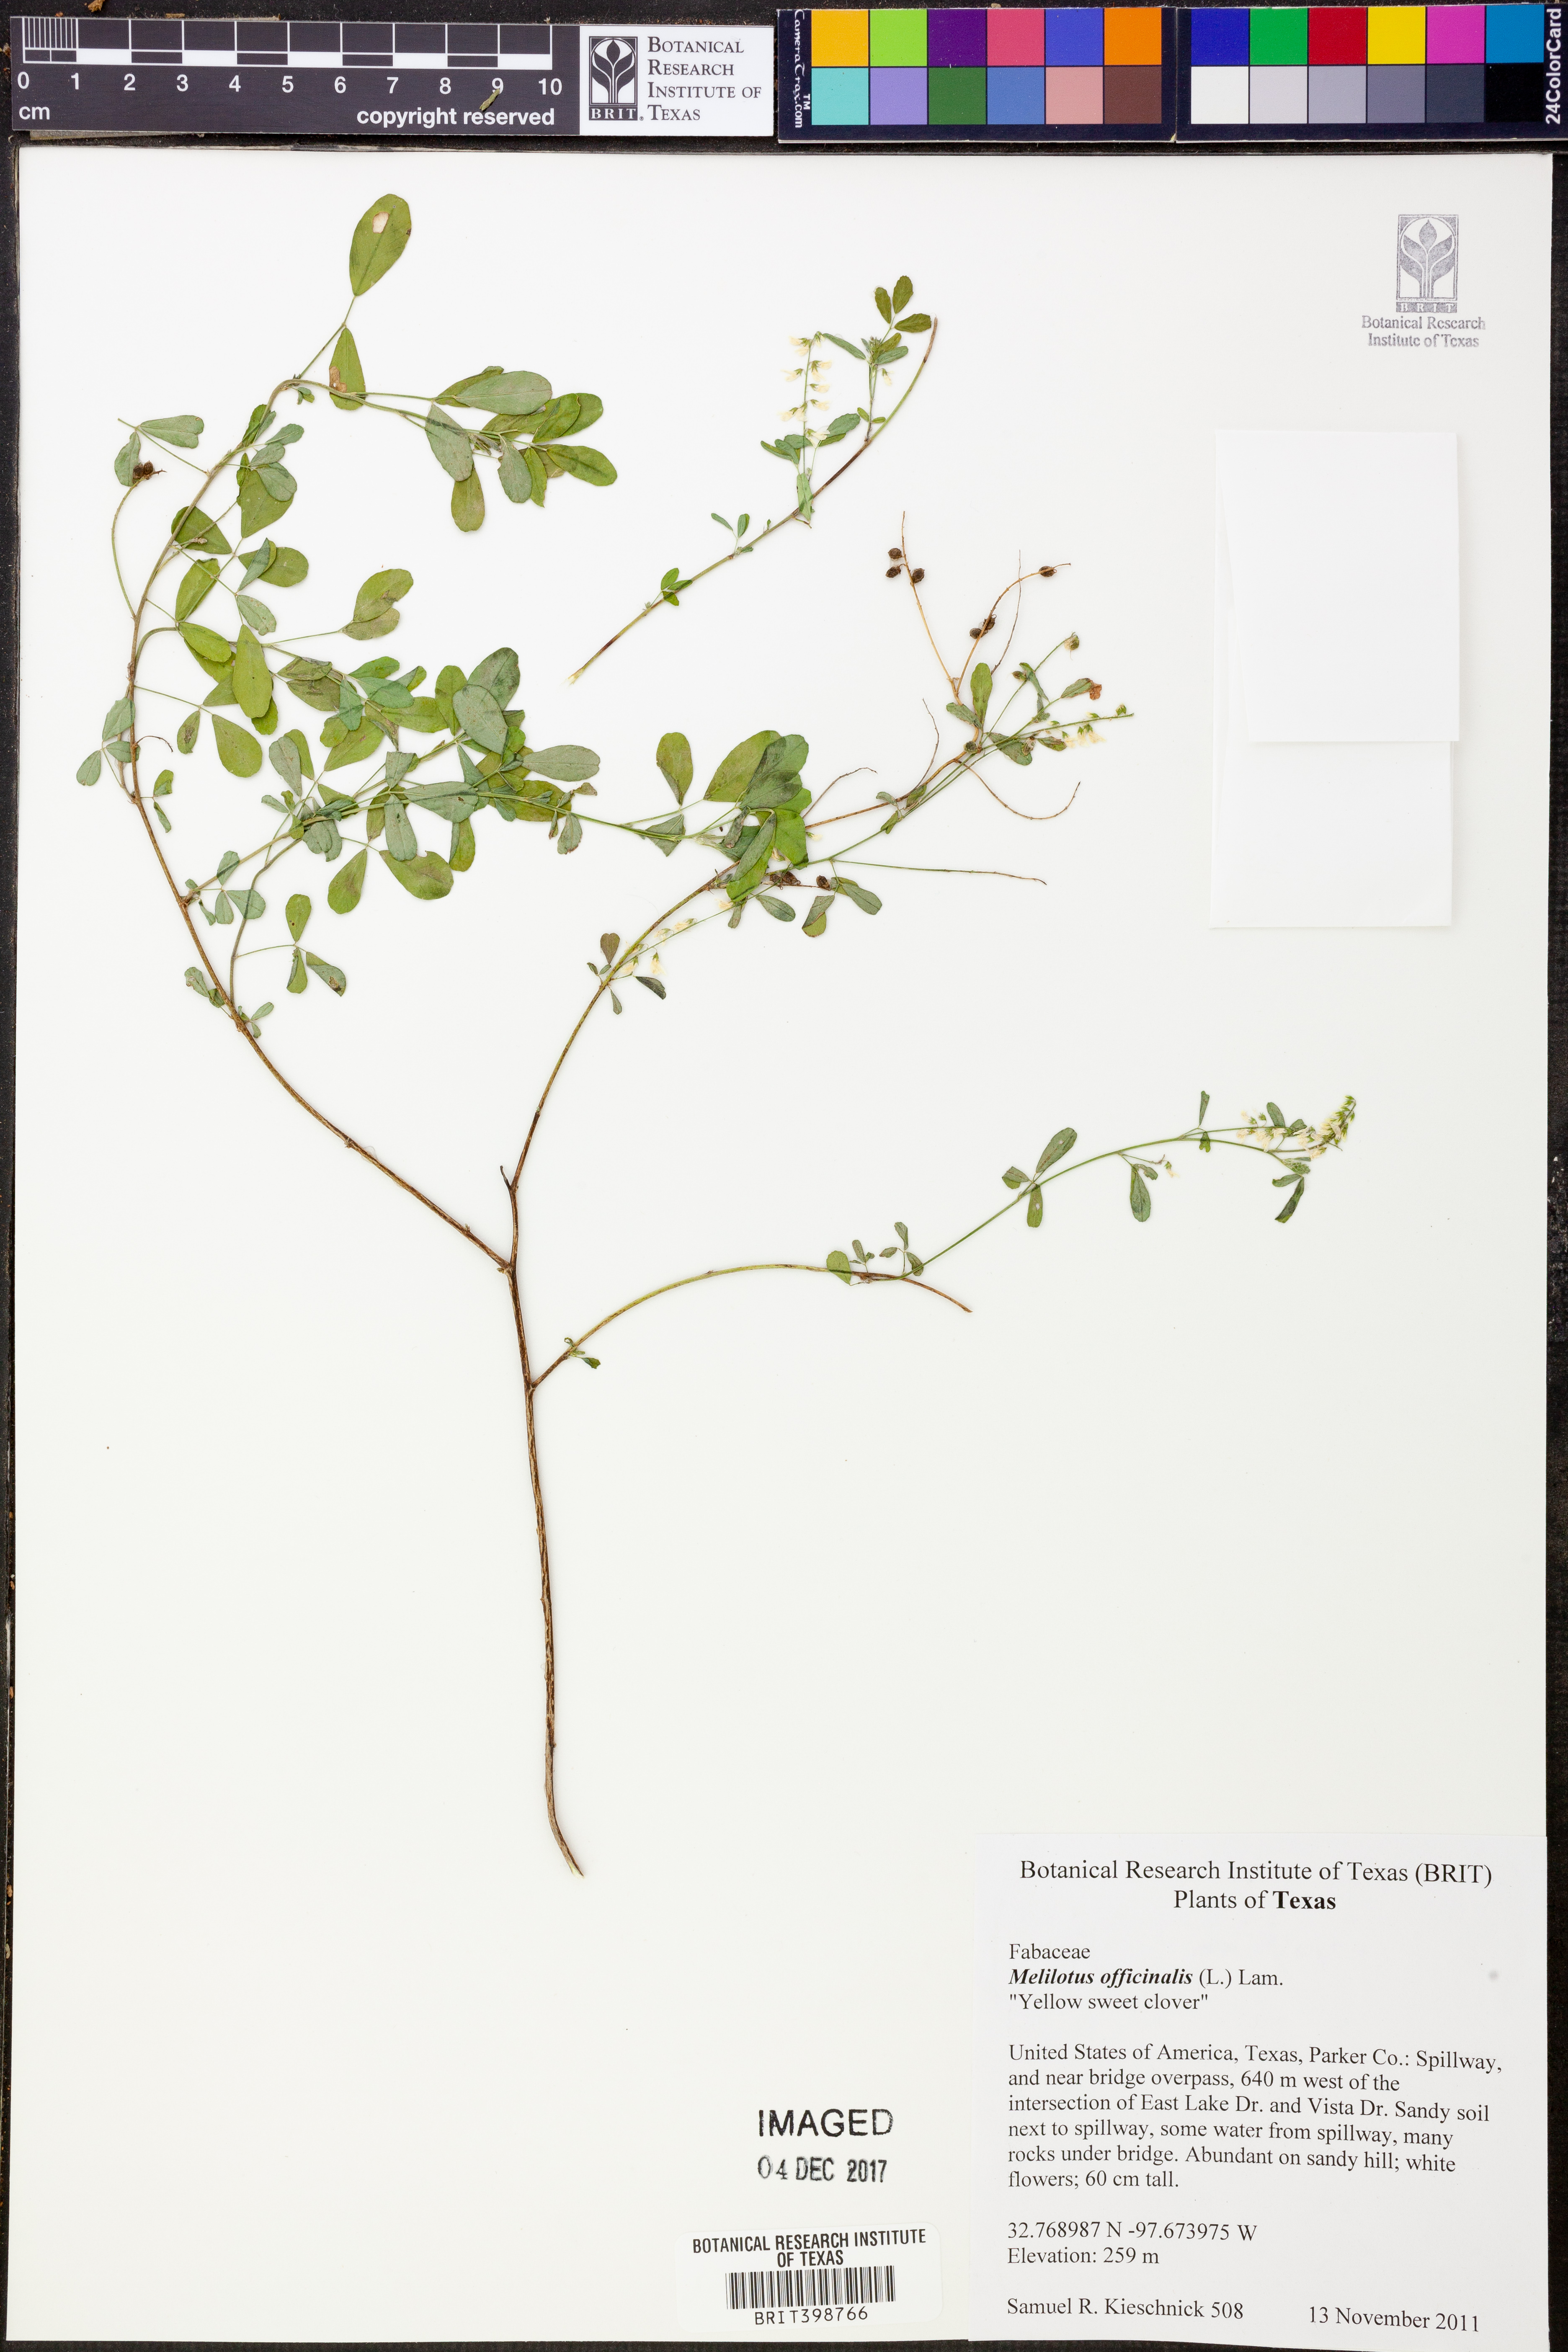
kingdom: Plantae
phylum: Tracheophyta
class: Magnoliopsida
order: Fabales
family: Fabaceae
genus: Melilotus
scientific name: Melilotus officinalis
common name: Sweetclover
